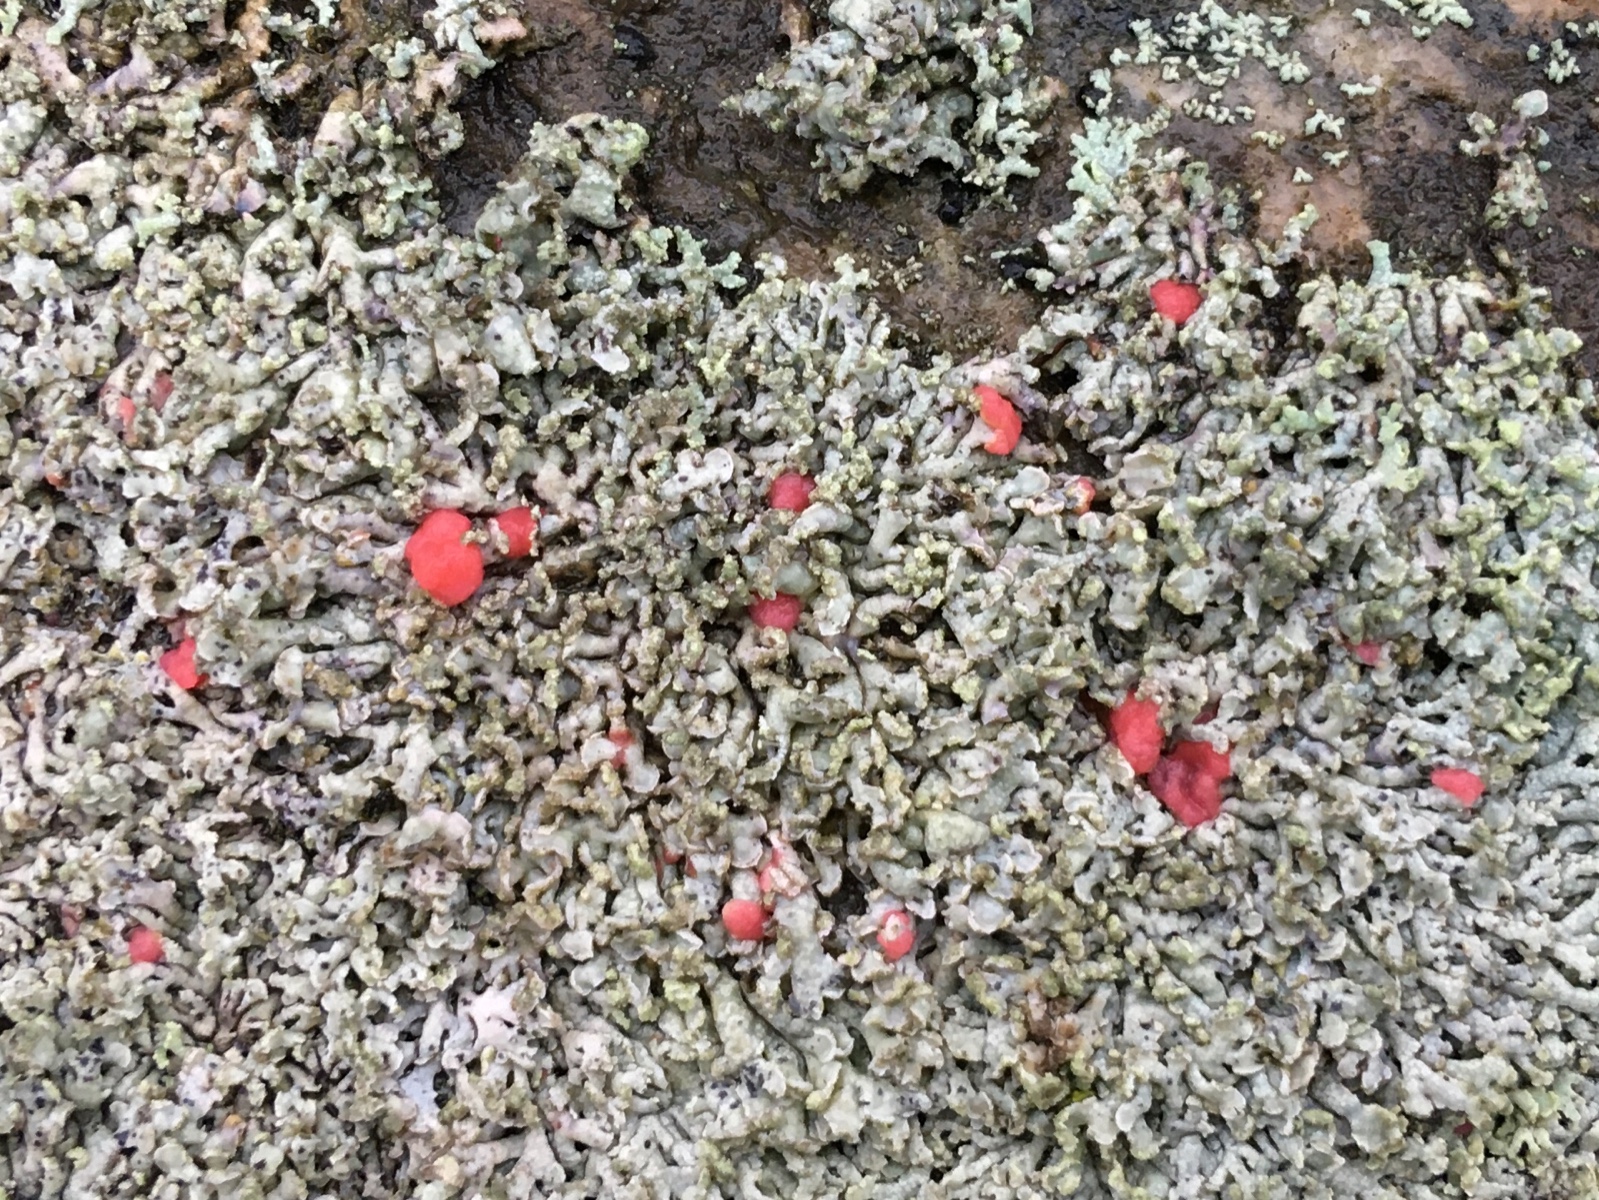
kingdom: Fungi
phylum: Ascomycota
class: Sordariomycetes
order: Hypocreales
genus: Illosporiopsis
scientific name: Illosporiopsis christiansenii
